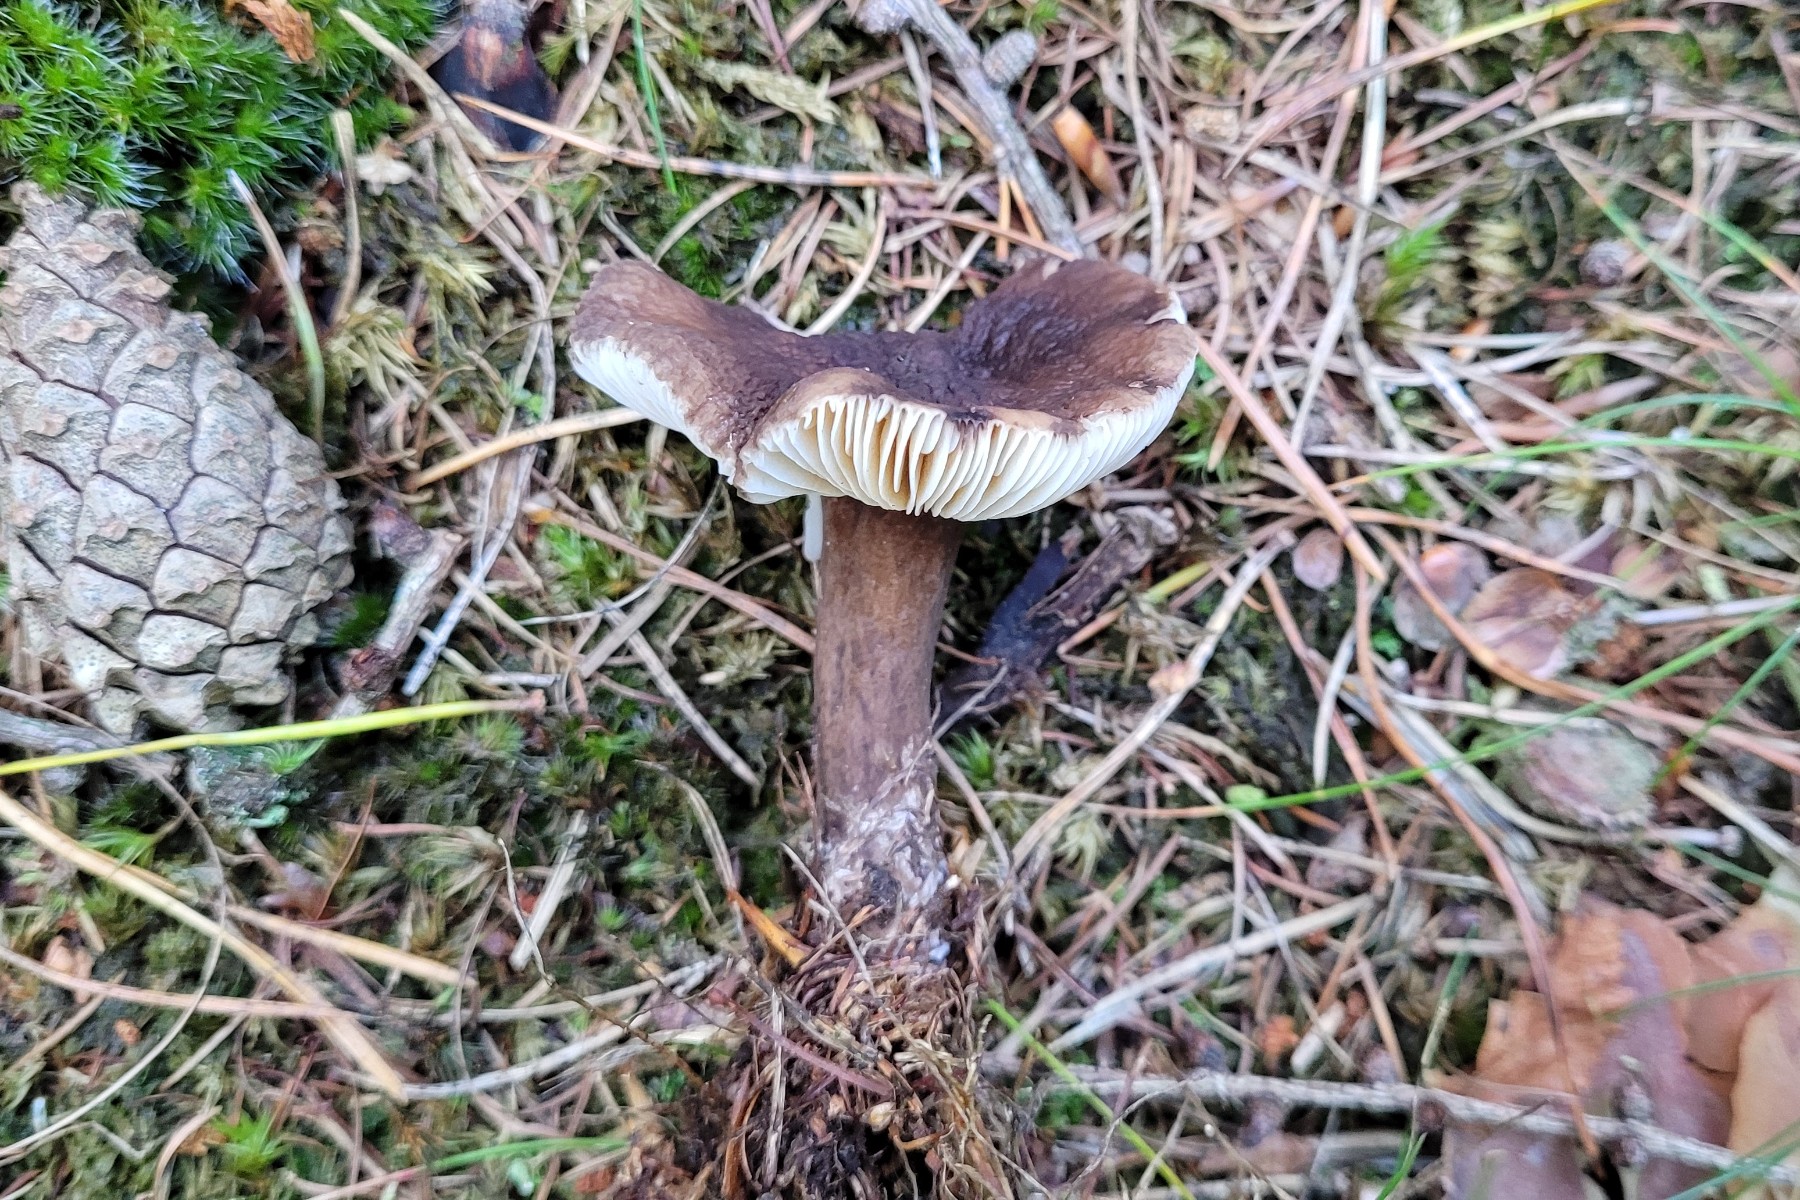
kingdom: Fungi
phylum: Basidiomycota
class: Agaricomycetes
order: Russulales
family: Russulaceae
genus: Lactarius
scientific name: Lactarius lignyotus
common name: fløjls-mælkehat
